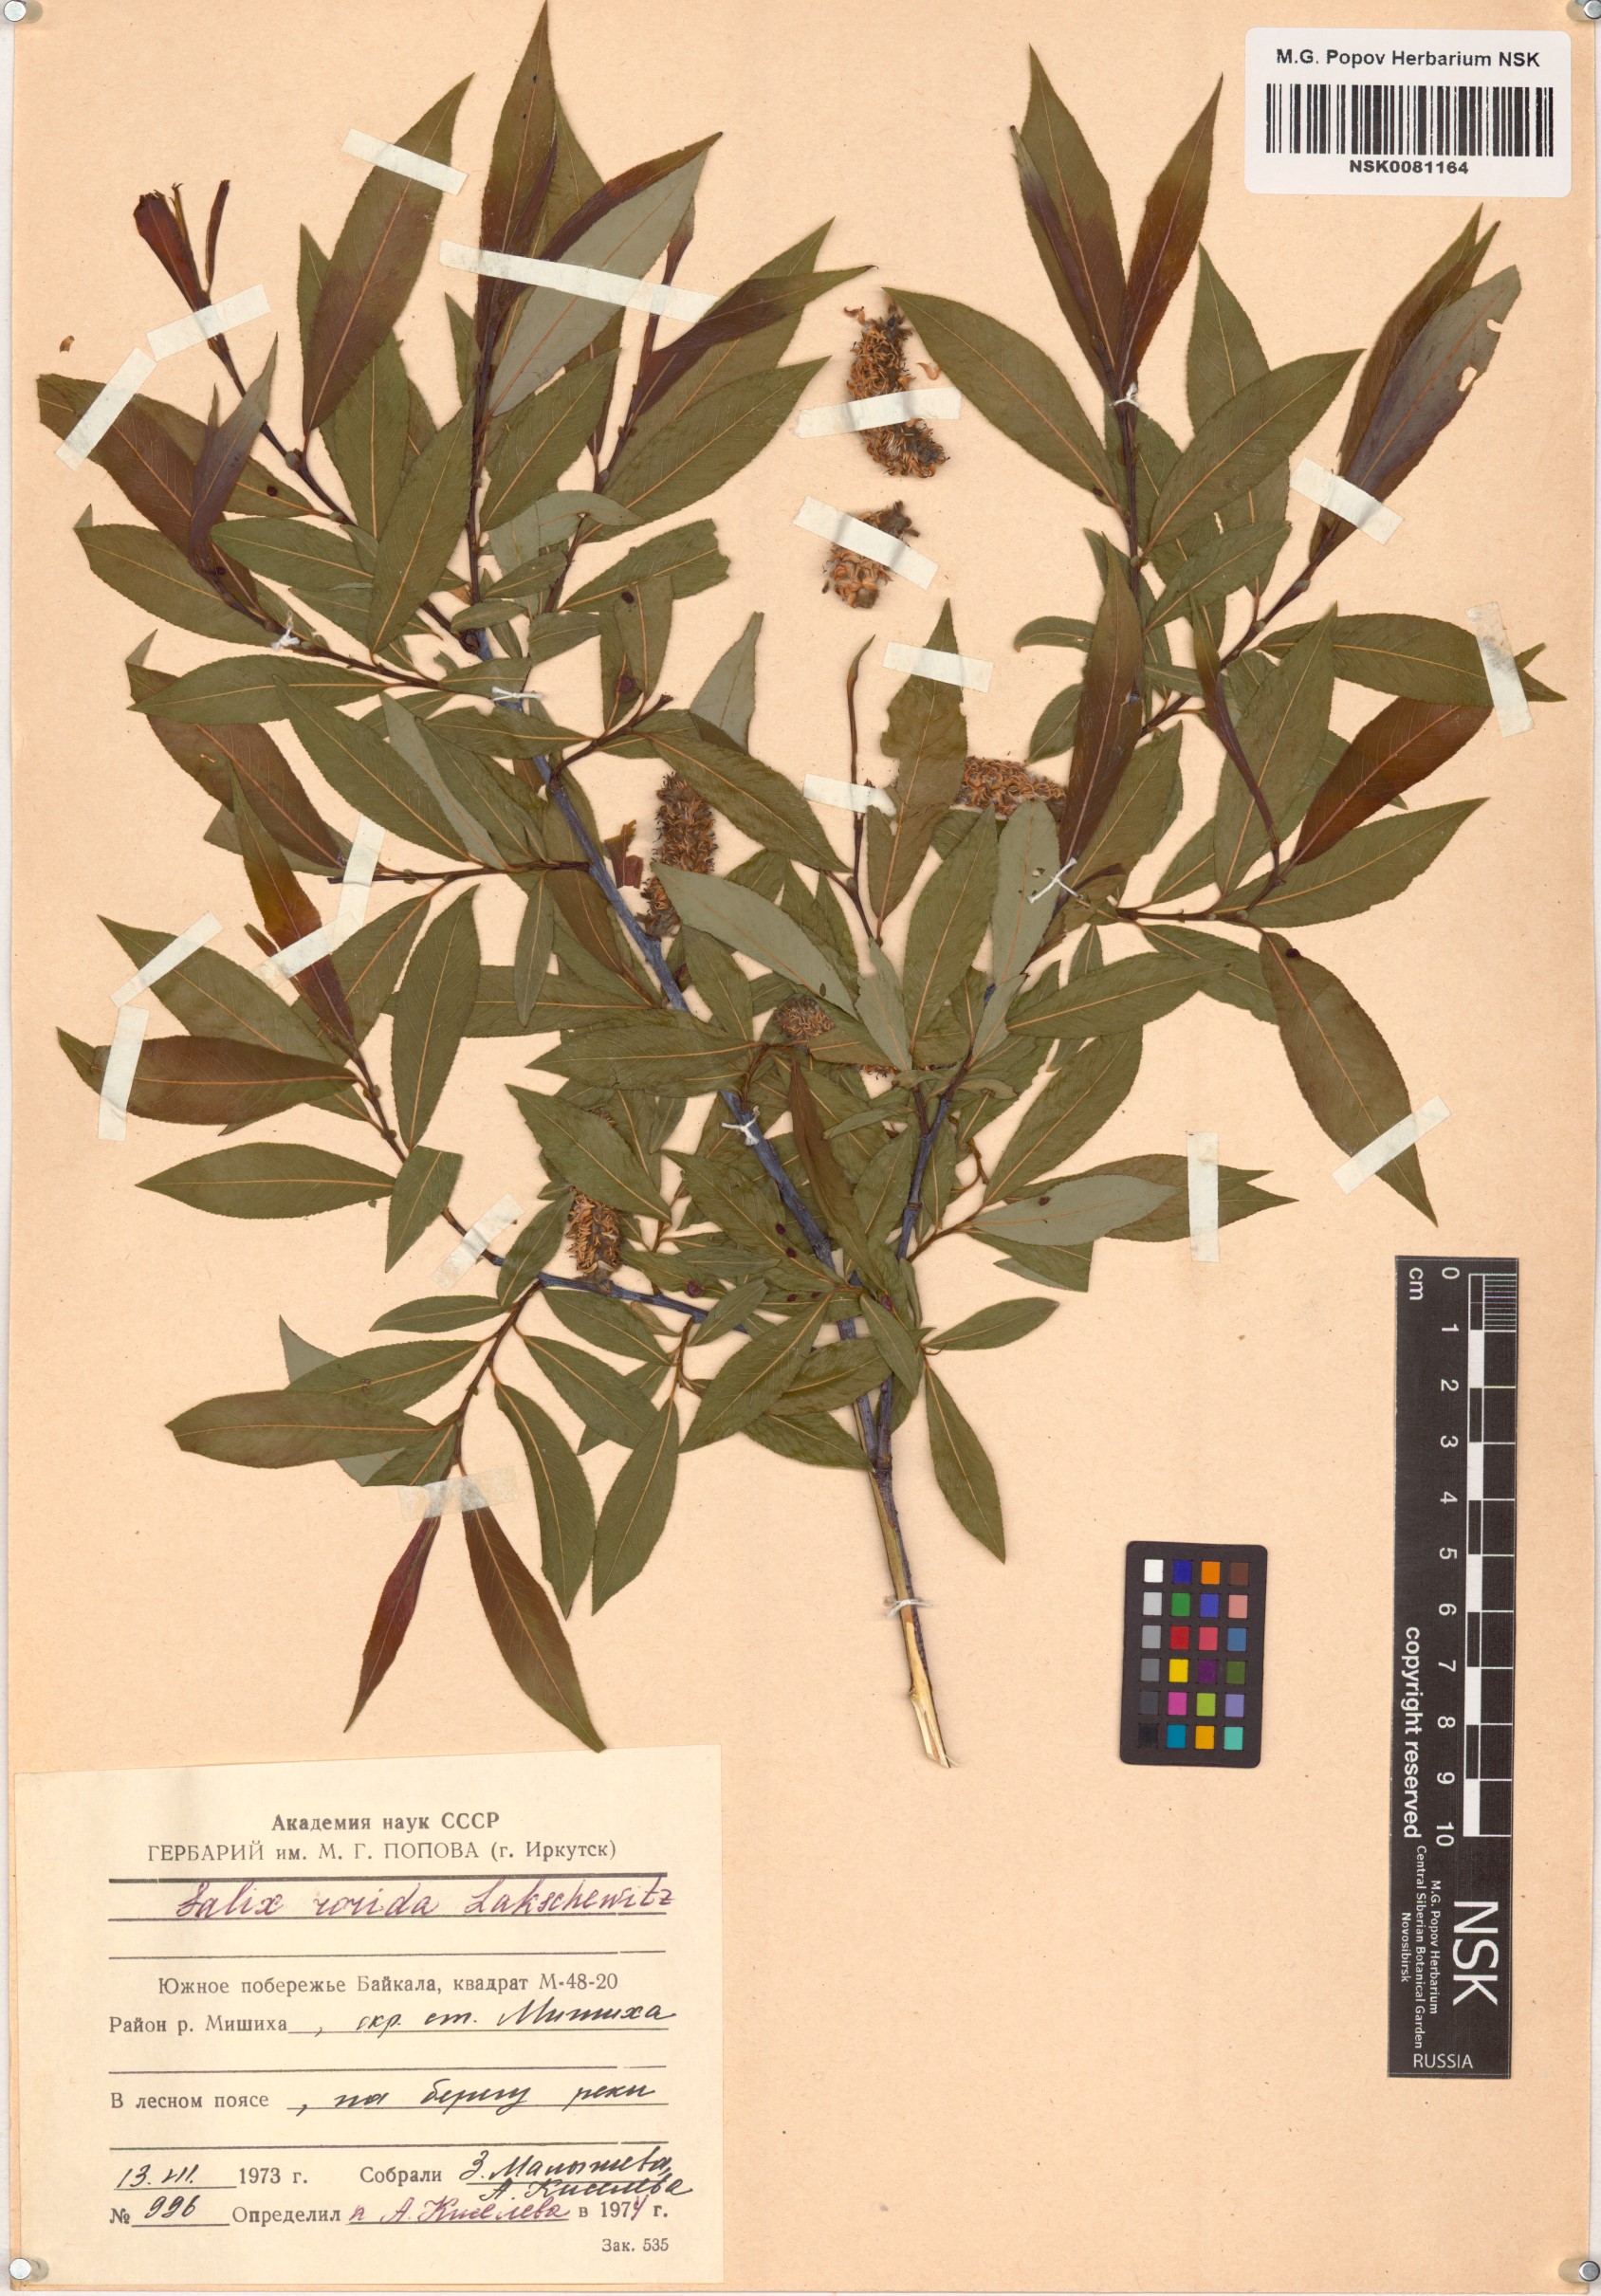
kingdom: Plantae
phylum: Tracheophyta
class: Magnoliopsida
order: Malpighiales
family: Salicaceae
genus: Salix
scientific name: Salix rorida
